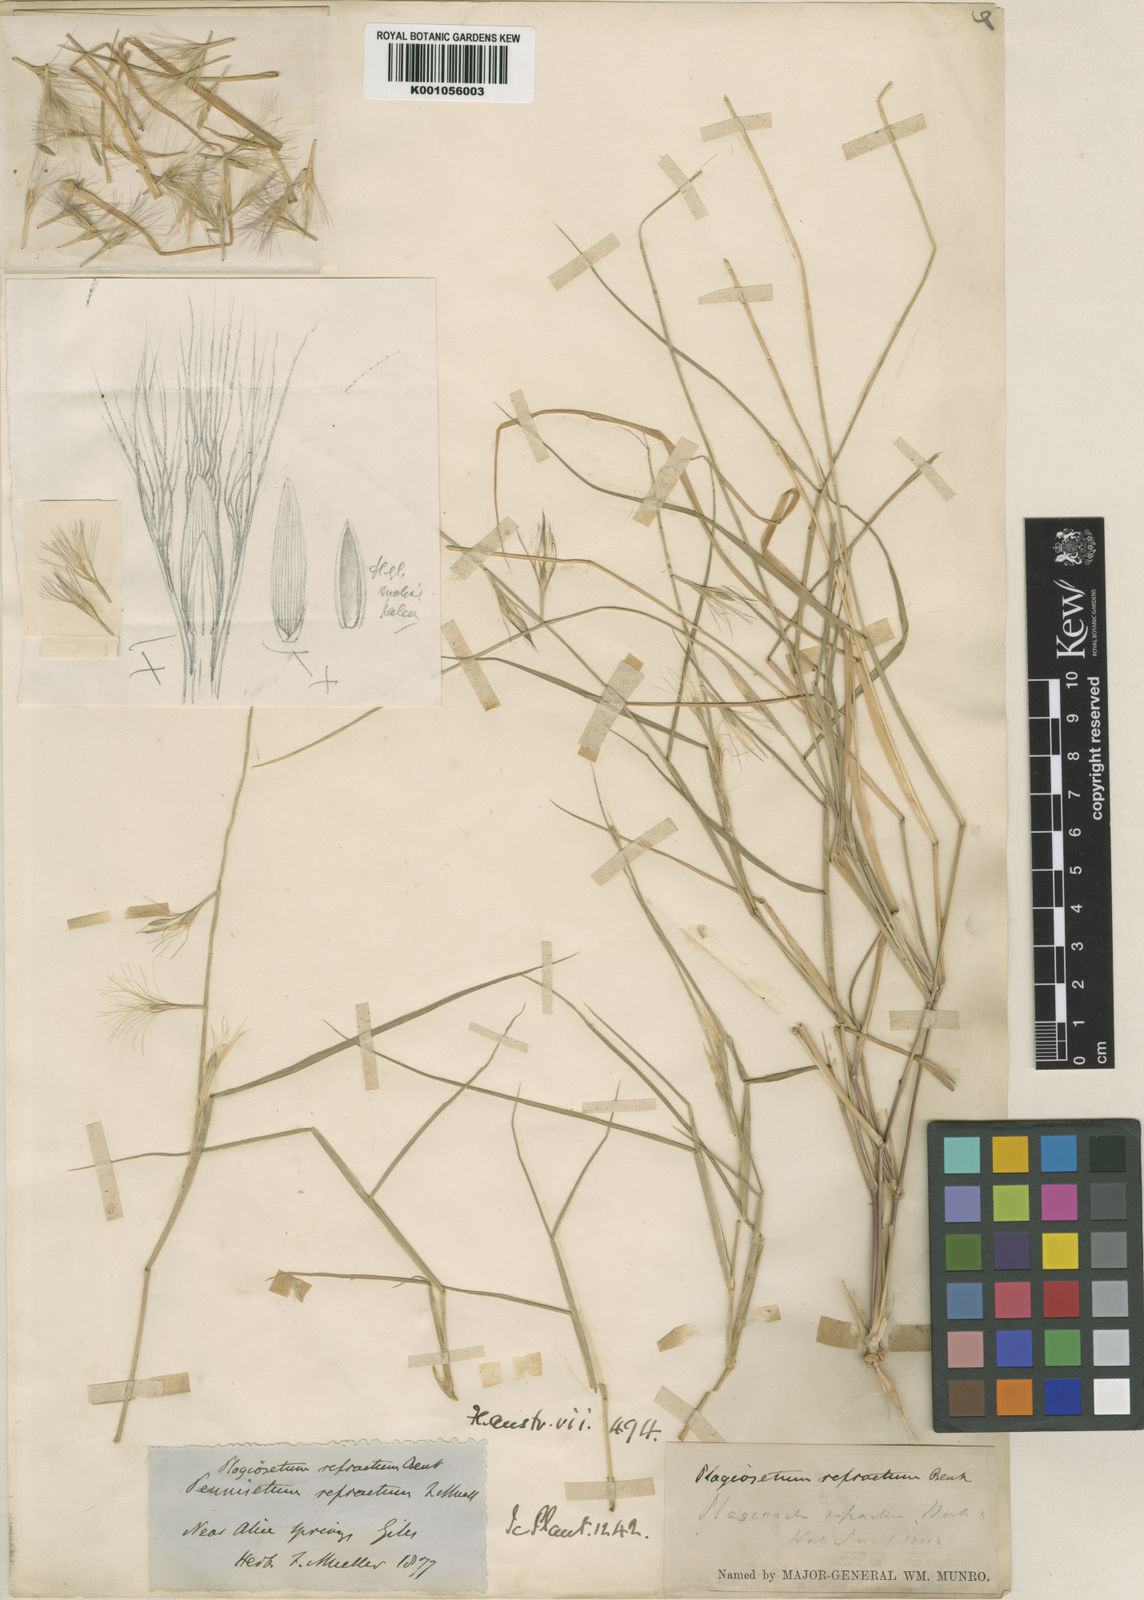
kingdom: Plantae
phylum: Tracheophyta
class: Liliopsida
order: Poales
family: Poaceae
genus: Plagiosetum
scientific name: Plagiosetum refractum
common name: Bristle-brush grass
